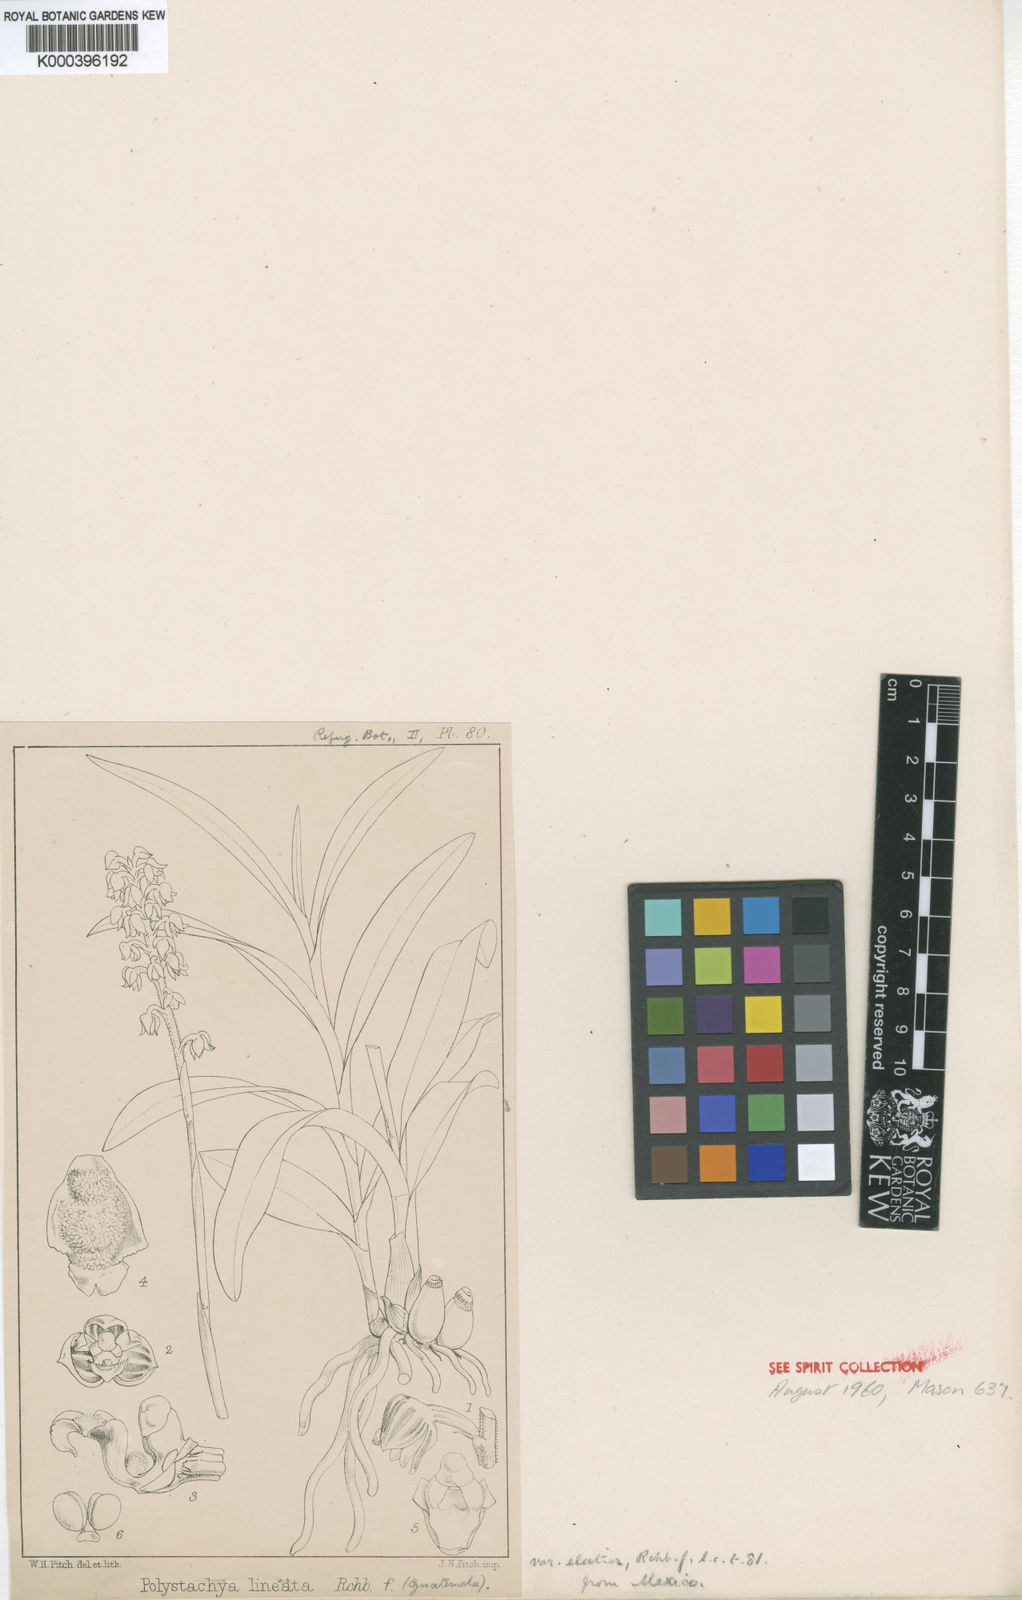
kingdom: Plantae
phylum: Tracheophyta
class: Liliopsida
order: Asparagales
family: Orchidaceae
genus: Polystachya
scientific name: Polystachya lineata
